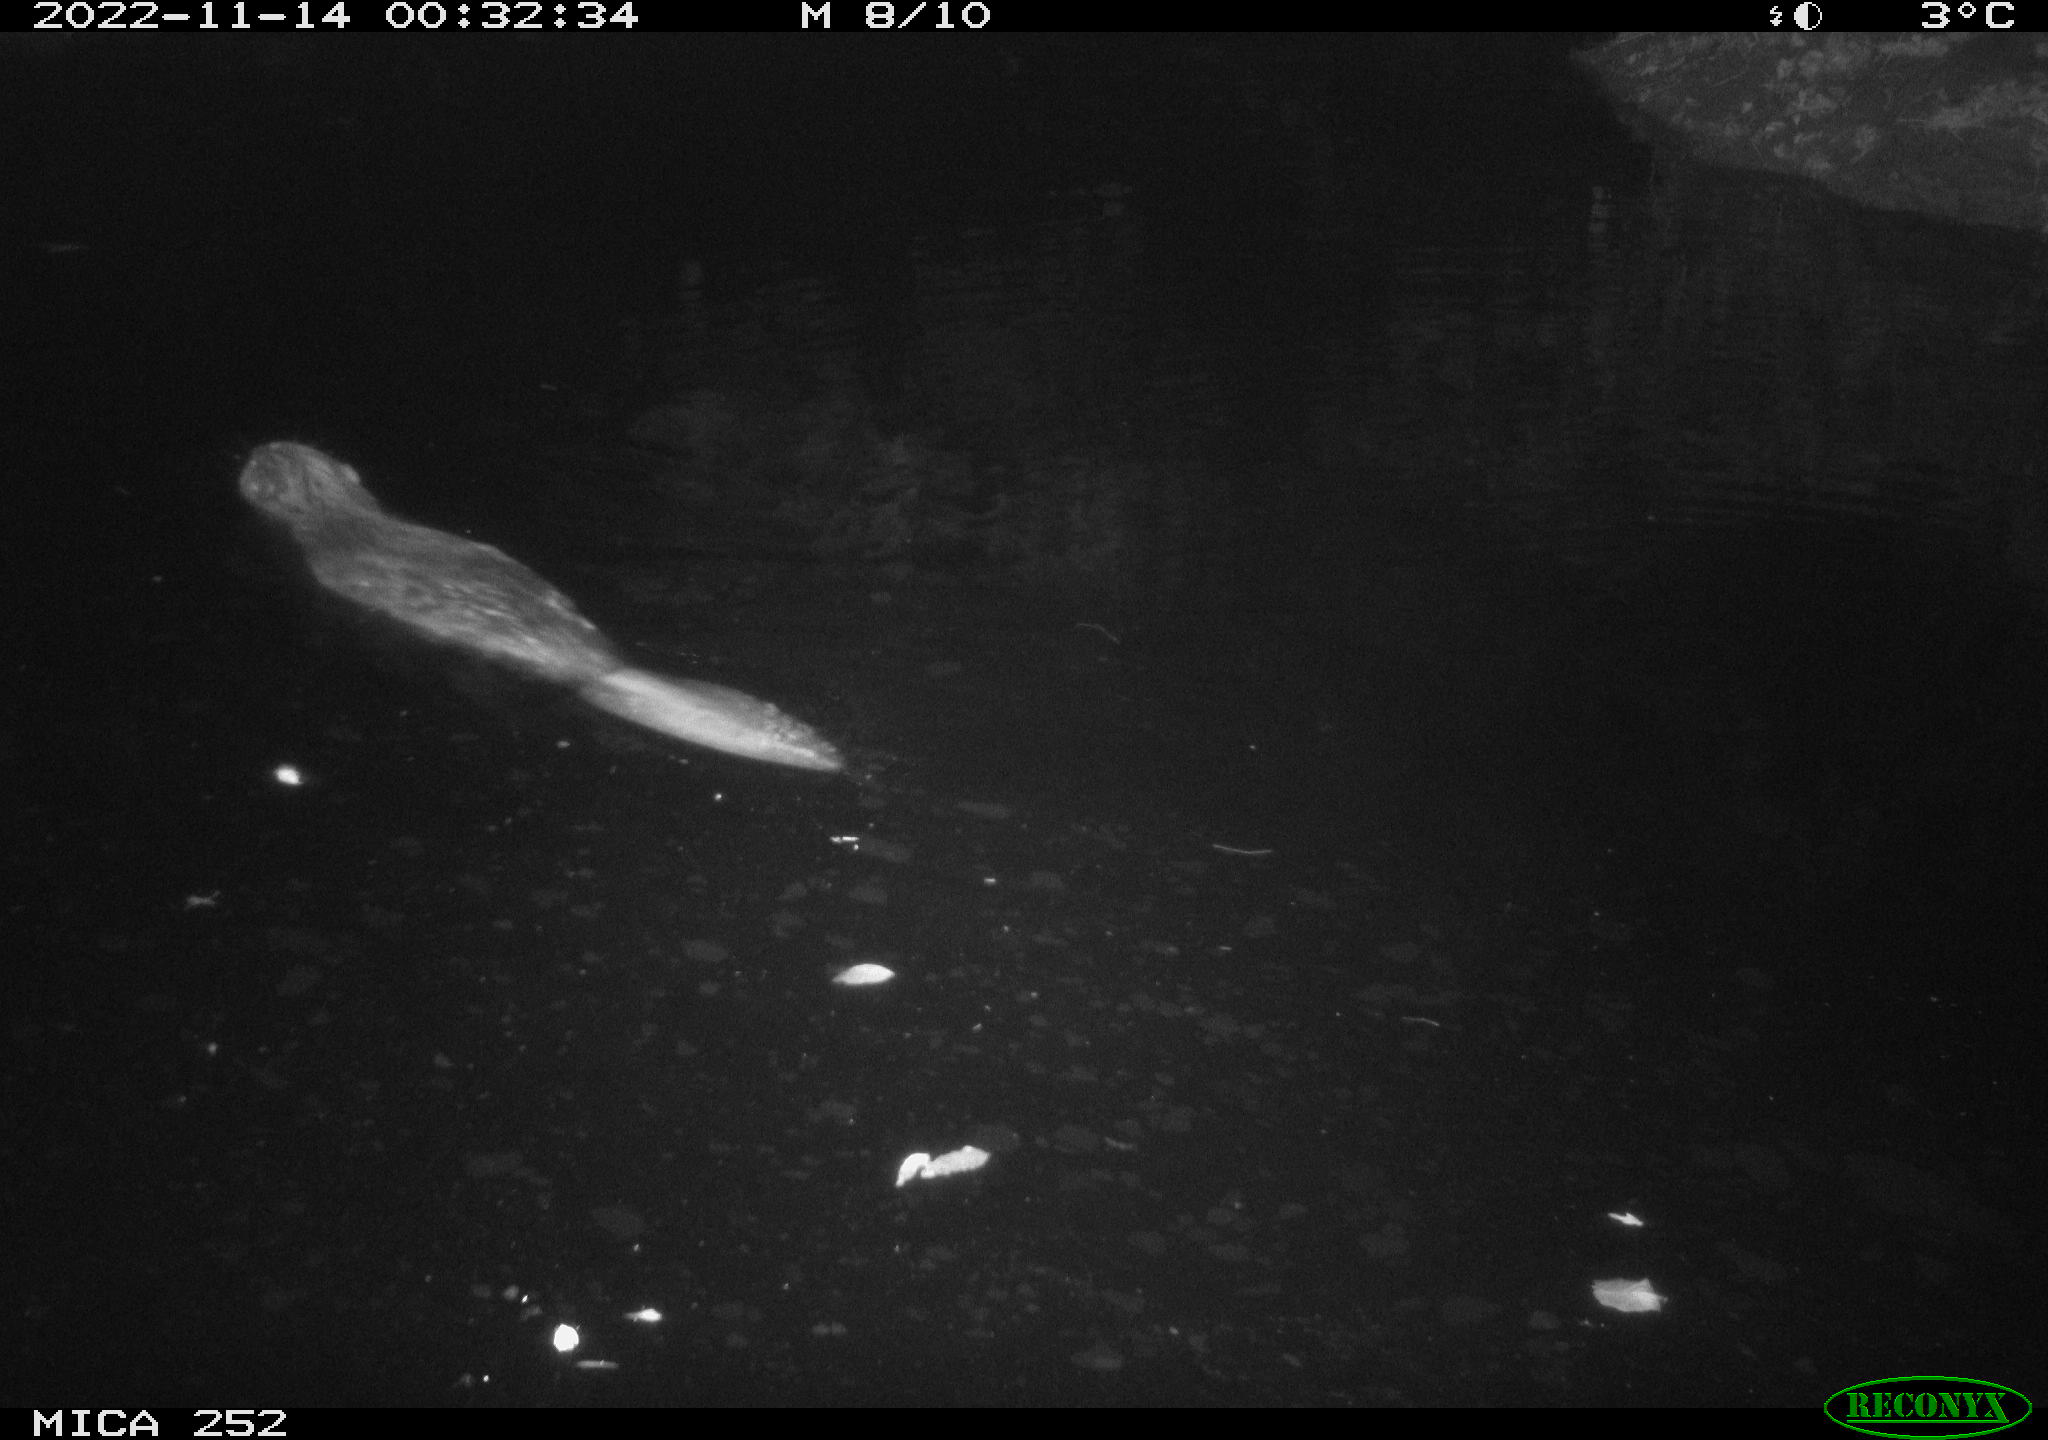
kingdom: Animalia
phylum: Chordata
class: Mammalia
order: Rodentia
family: Castoridae
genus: Castor
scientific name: Castor fiber
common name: Eurasian beaver
